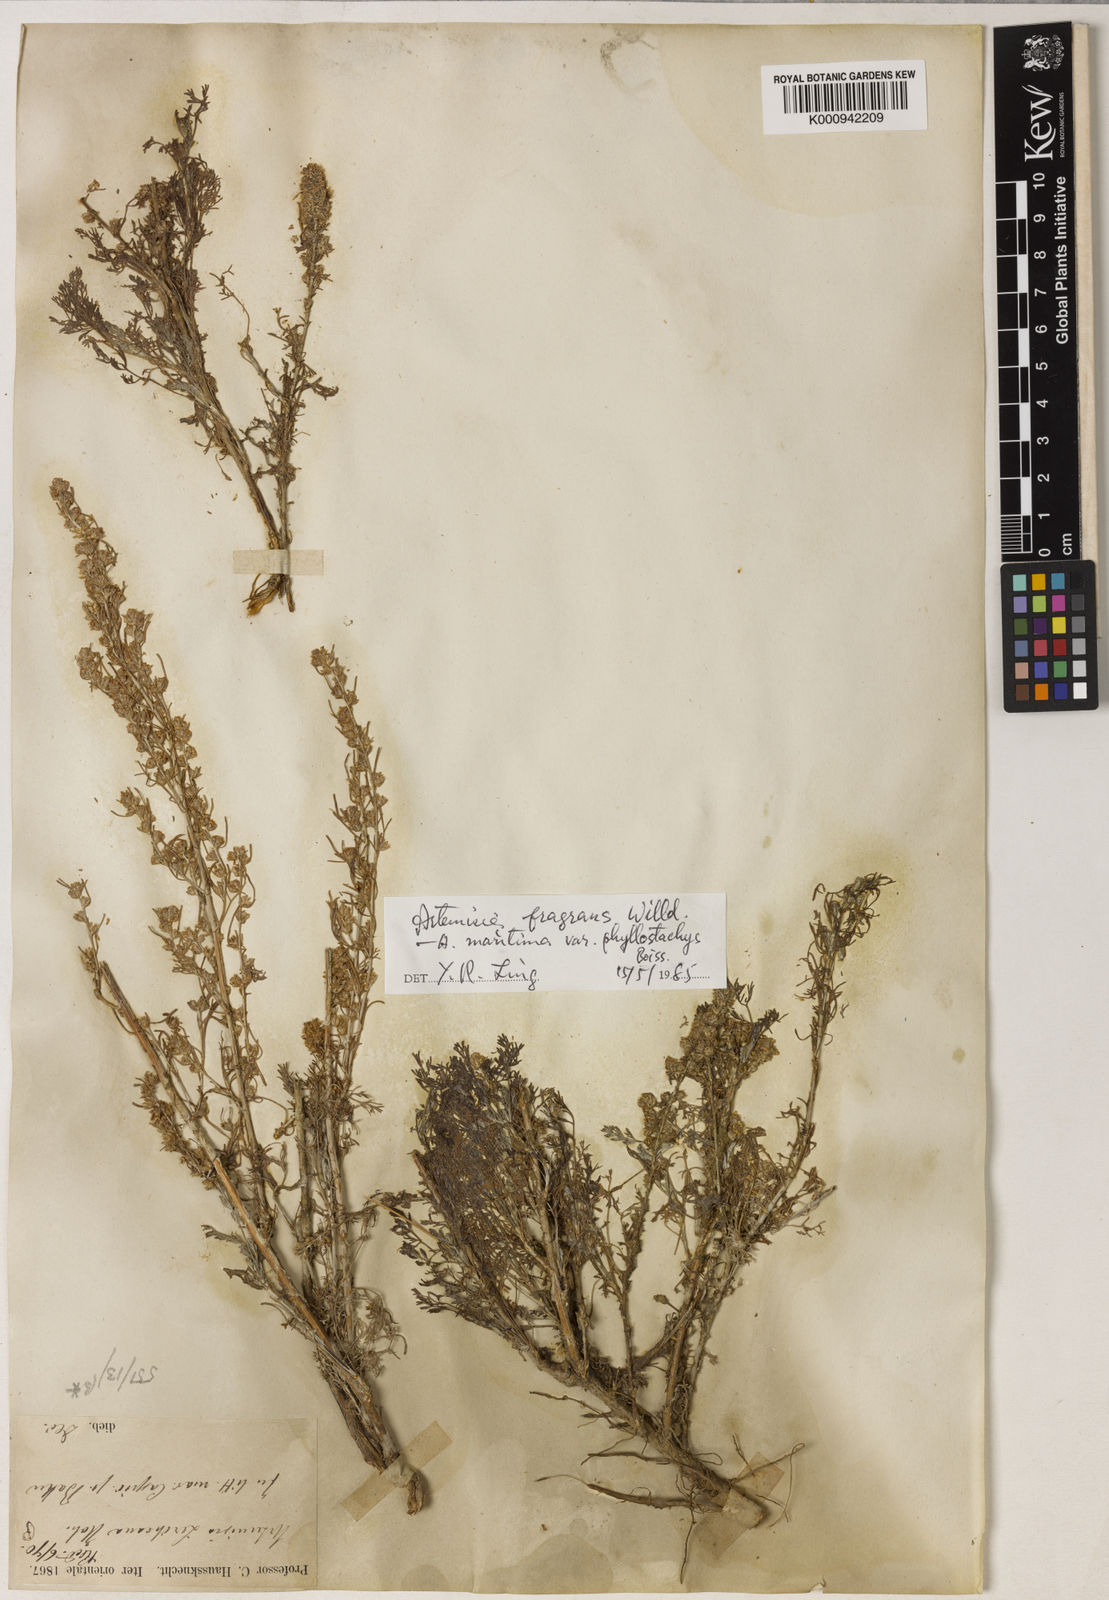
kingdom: Plantae
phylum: Tracheophyta
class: Magnoliopsida
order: Asterales
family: Asteraceae
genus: Artemisia
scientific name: Artemisia fragrans
